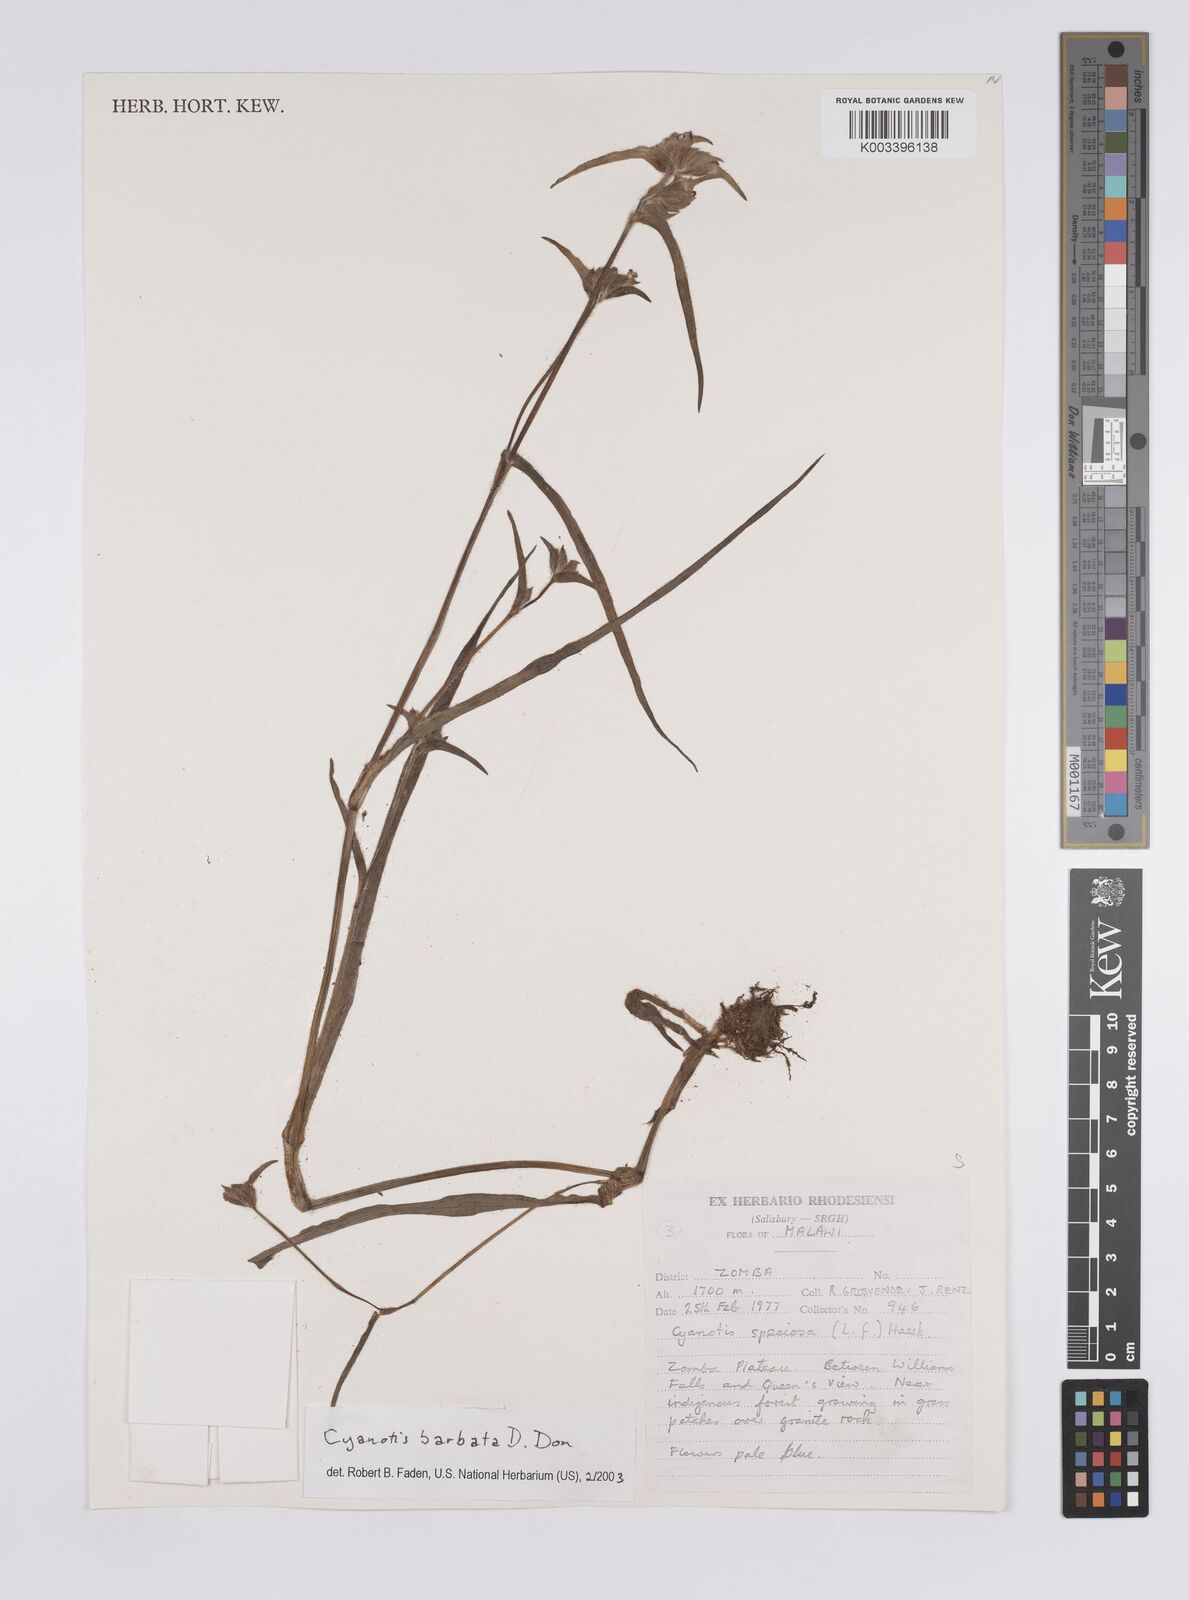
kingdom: Plantae
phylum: Tracheophyta
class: Liliopsida
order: Commelinales
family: Commelinaceae
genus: Cyanotis
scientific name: Cyanotis vaga
